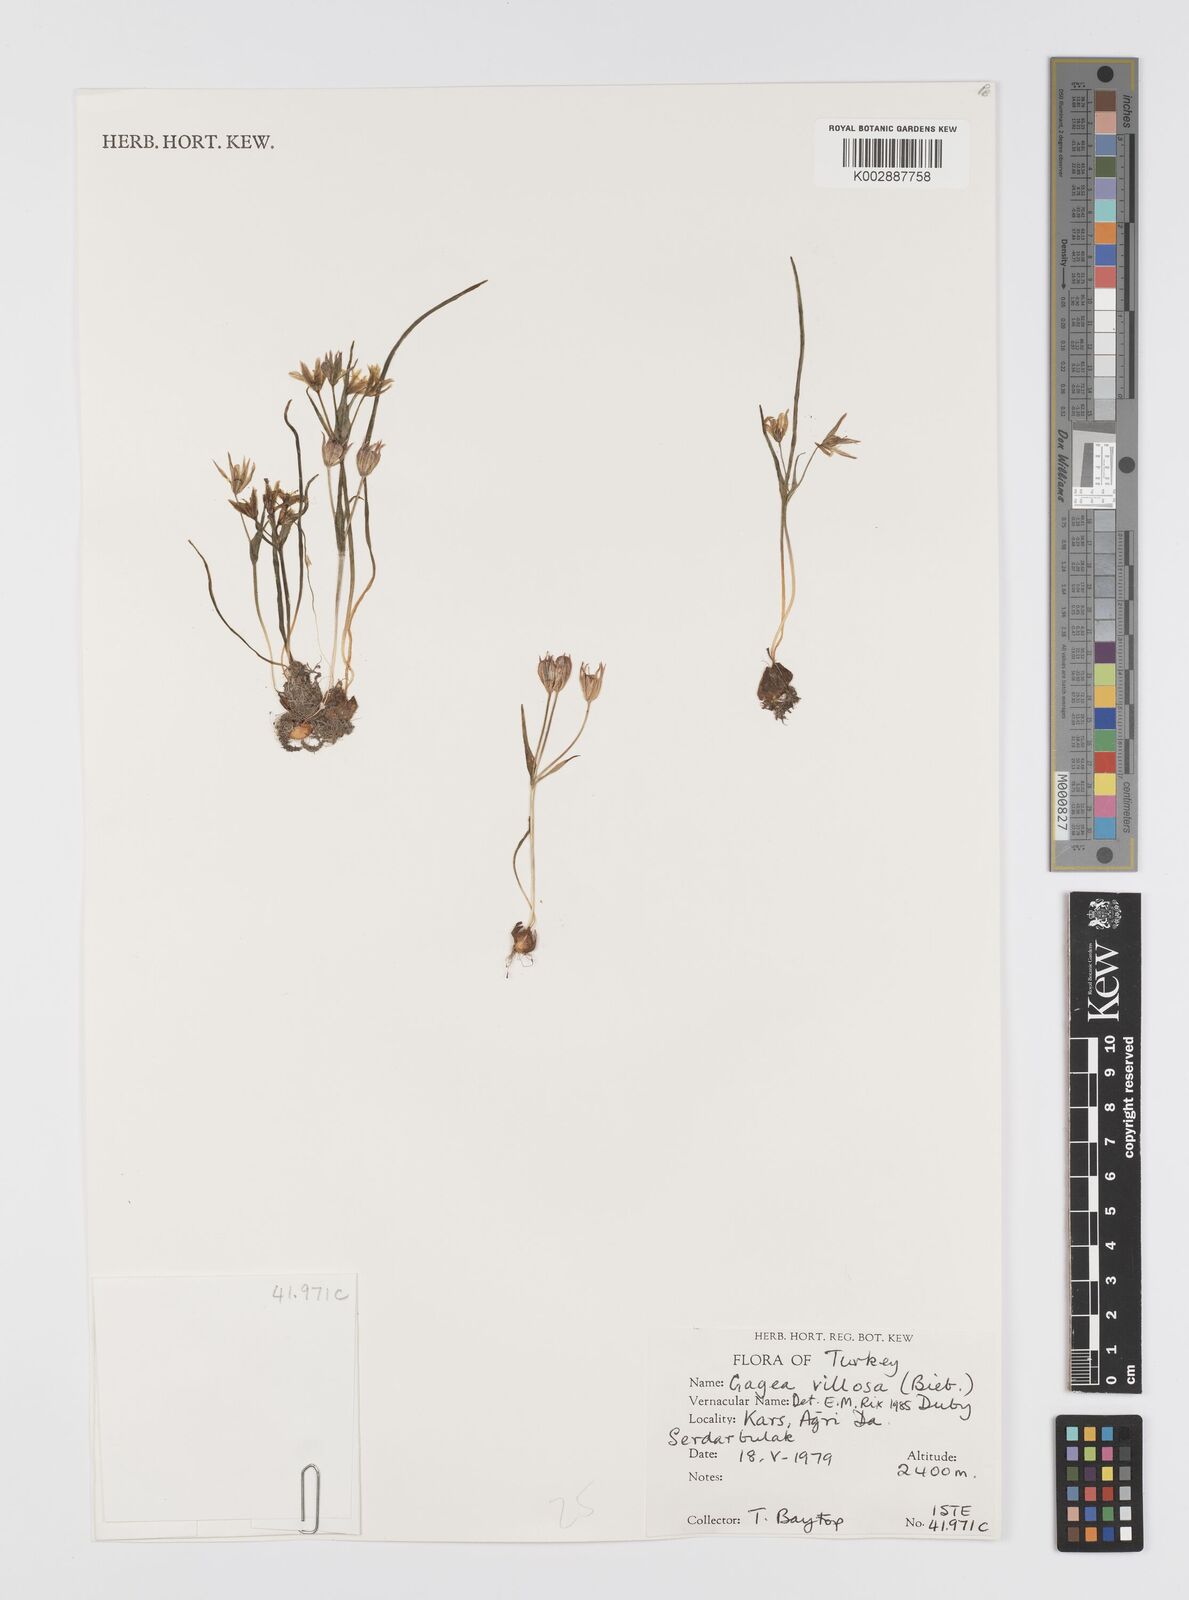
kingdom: Plantae
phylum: Tracheophyta
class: Liliopsida
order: Liliales
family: Liliaceae
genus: Gagea
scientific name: Gagea villosa
